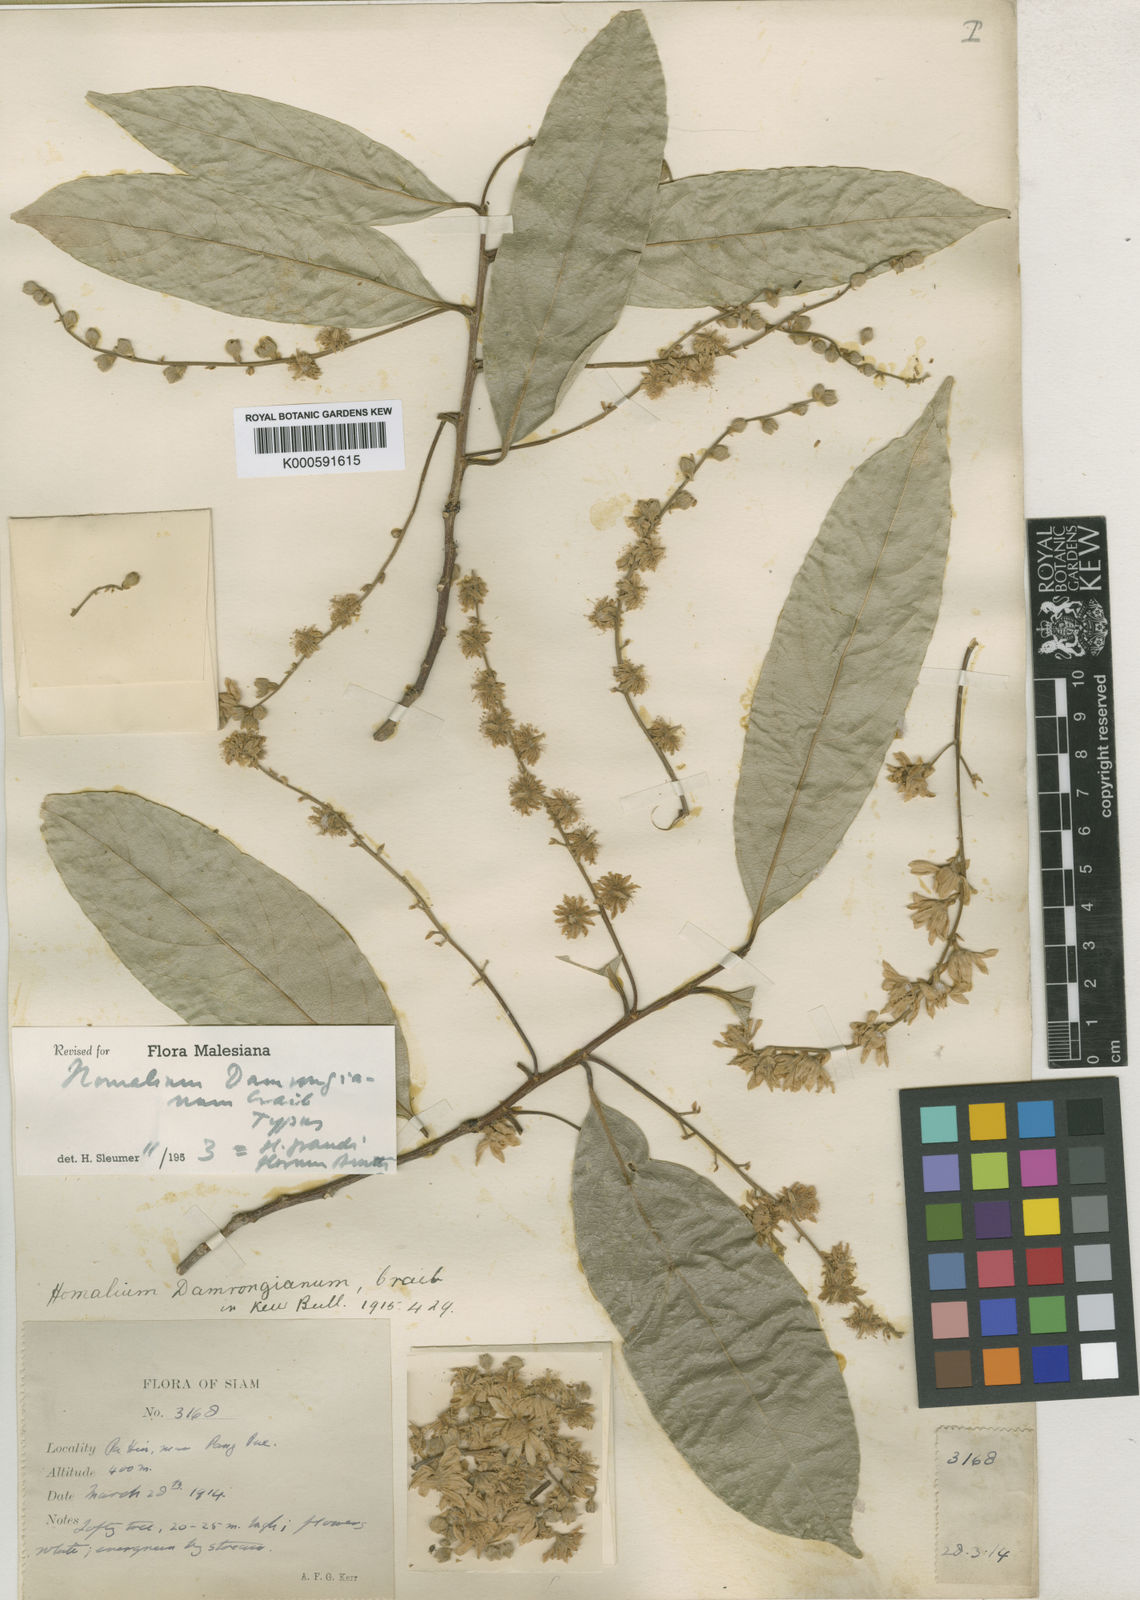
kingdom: Plantae
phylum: Tracheophyta
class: Magnoliopsida
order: Malpighiales
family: Salicaceae
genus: Homalium
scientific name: Homalium grandiflorum
